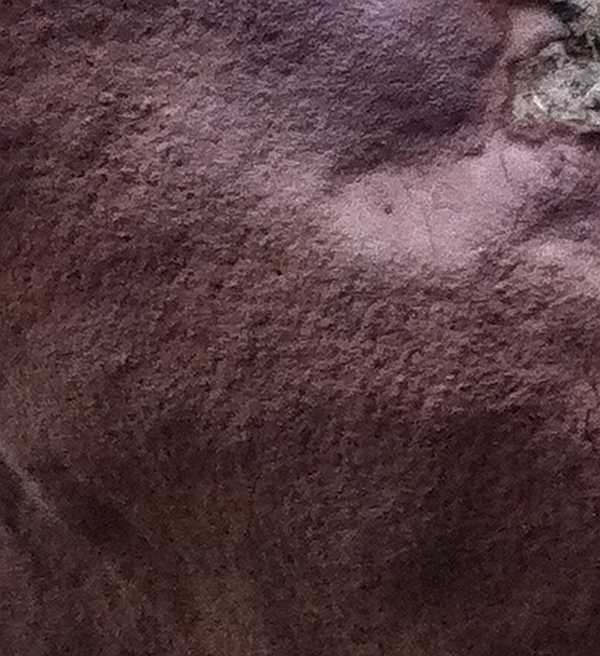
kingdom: Fungi
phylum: Basidiomycota
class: Agaricomycetes
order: Hymenochaetales
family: Hymenochaetaceae
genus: Fomitiporia
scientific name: Fomitiporia punctata
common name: pude-ildporesvamp
